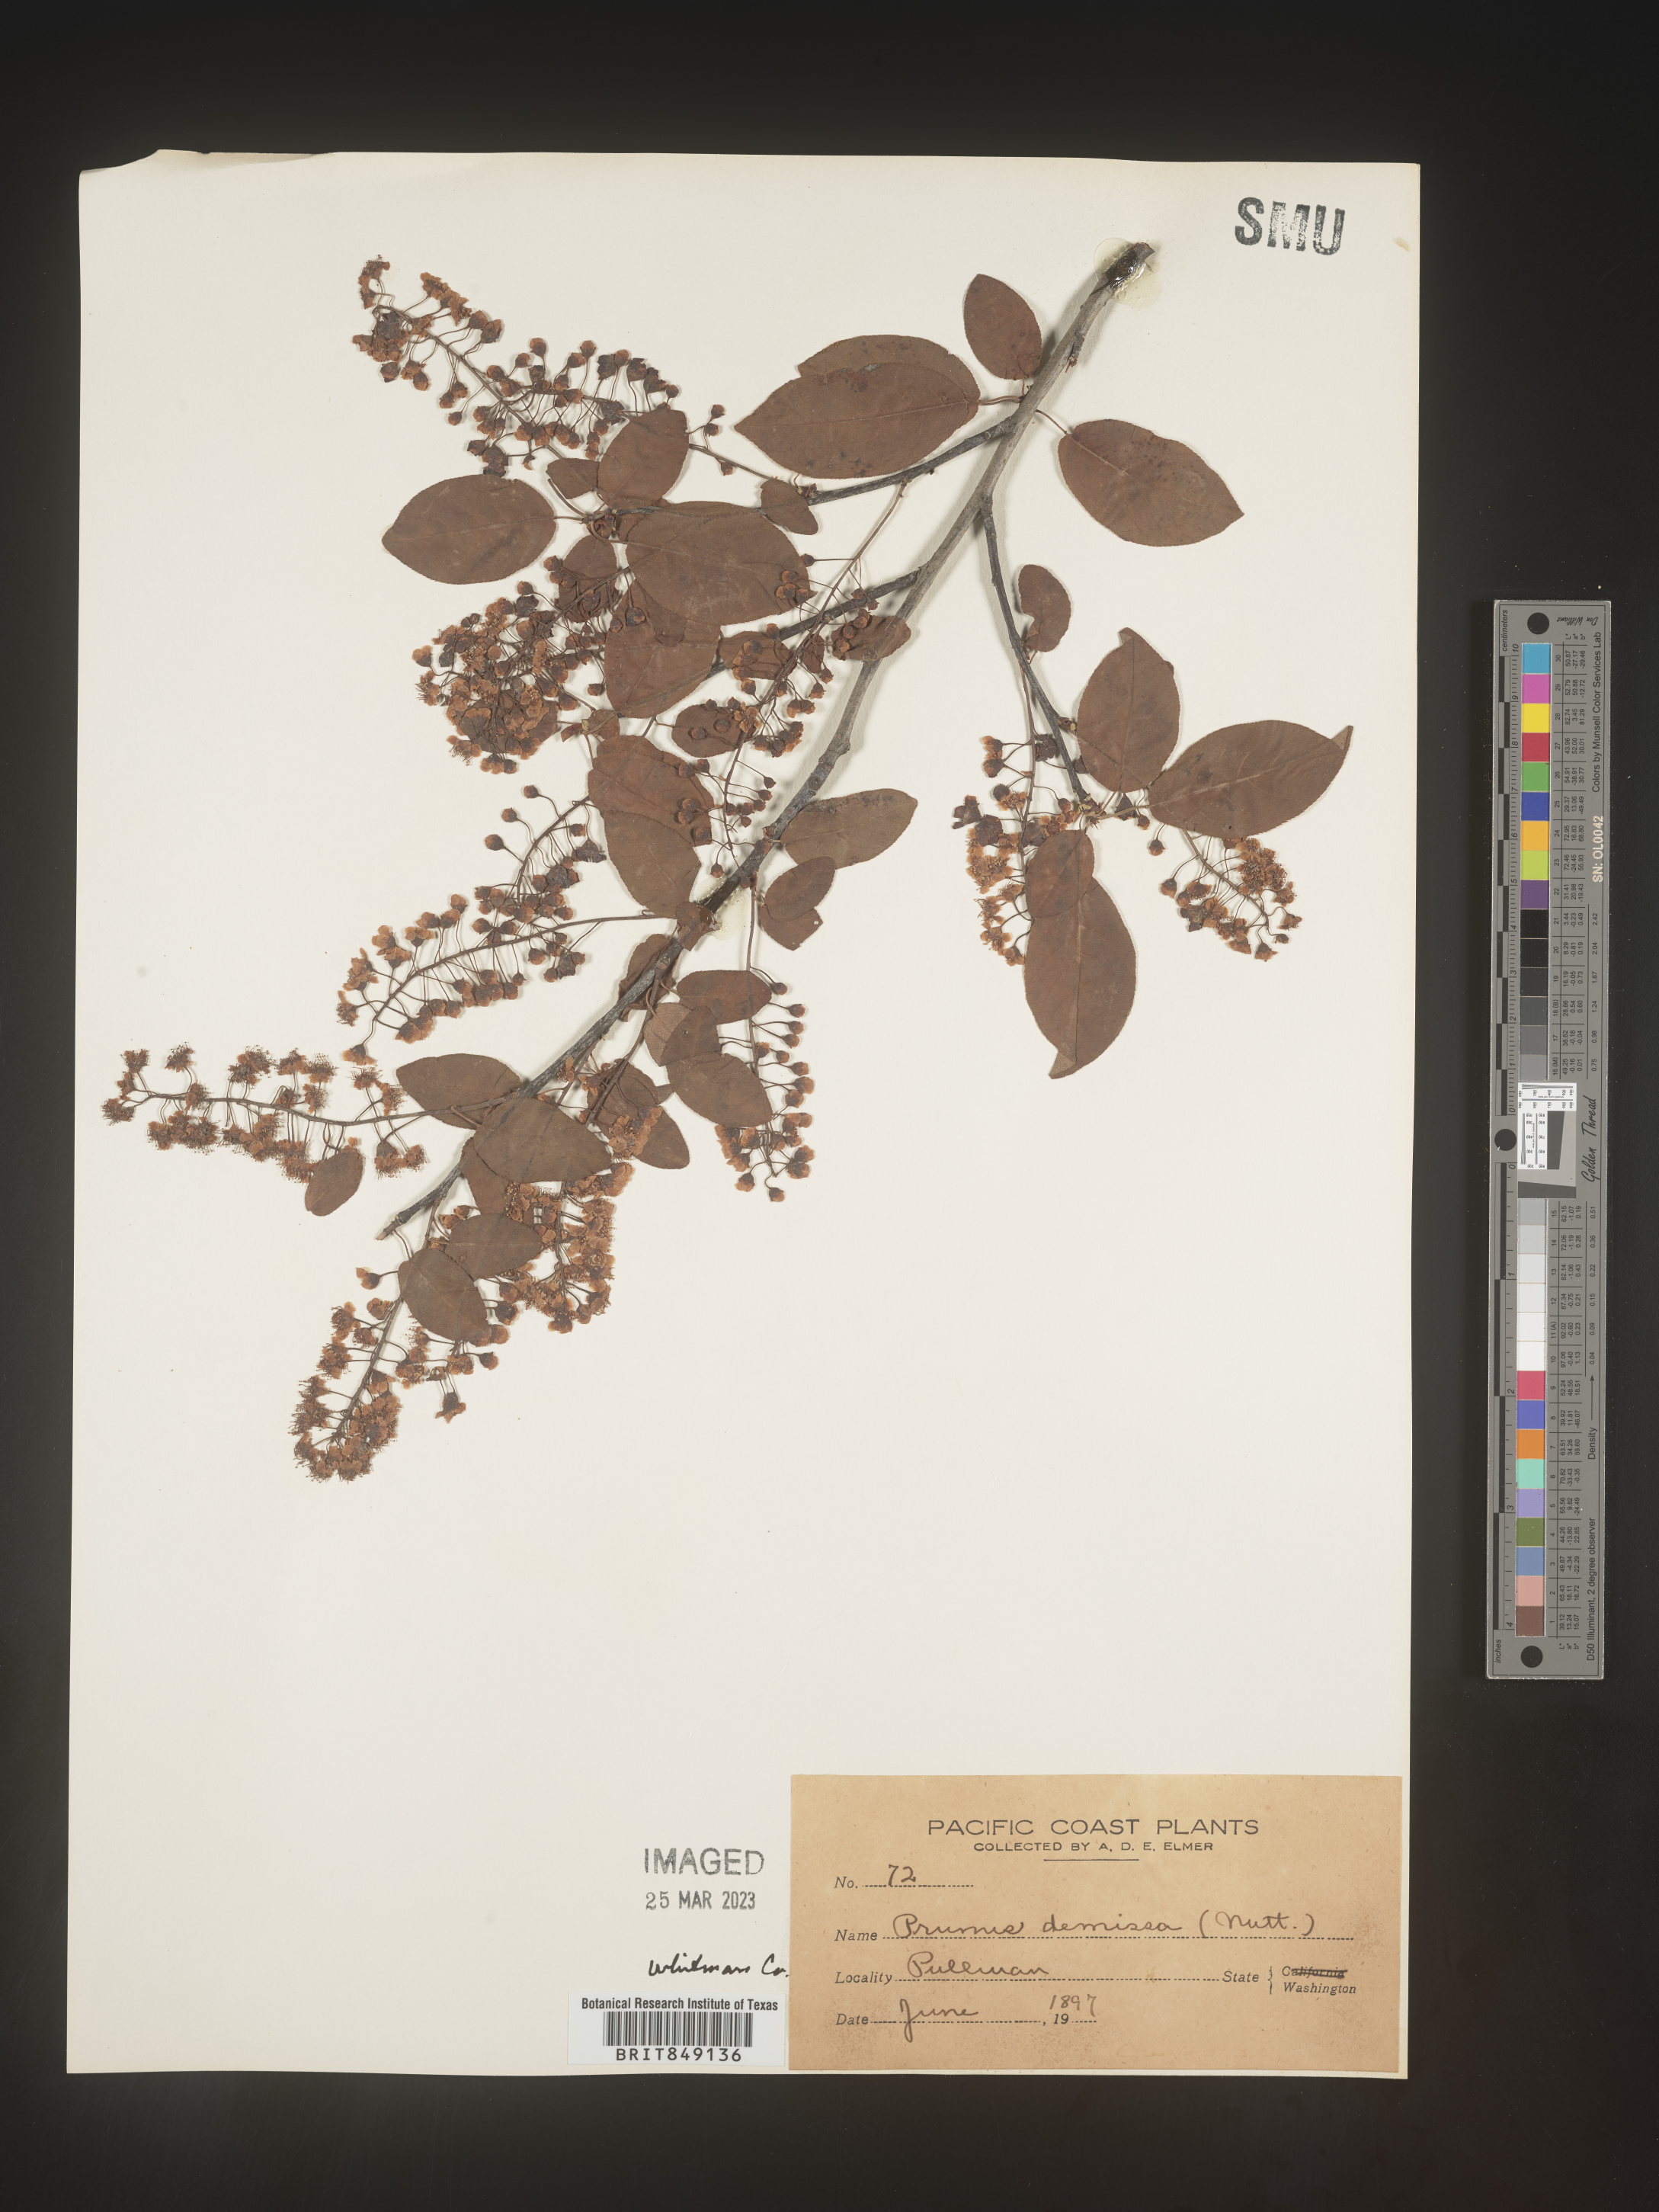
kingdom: Plantae
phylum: Tracheophyta
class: Magnoliopsida
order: Rosales
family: Rosaceae
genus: Prunus
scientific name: Prunus
